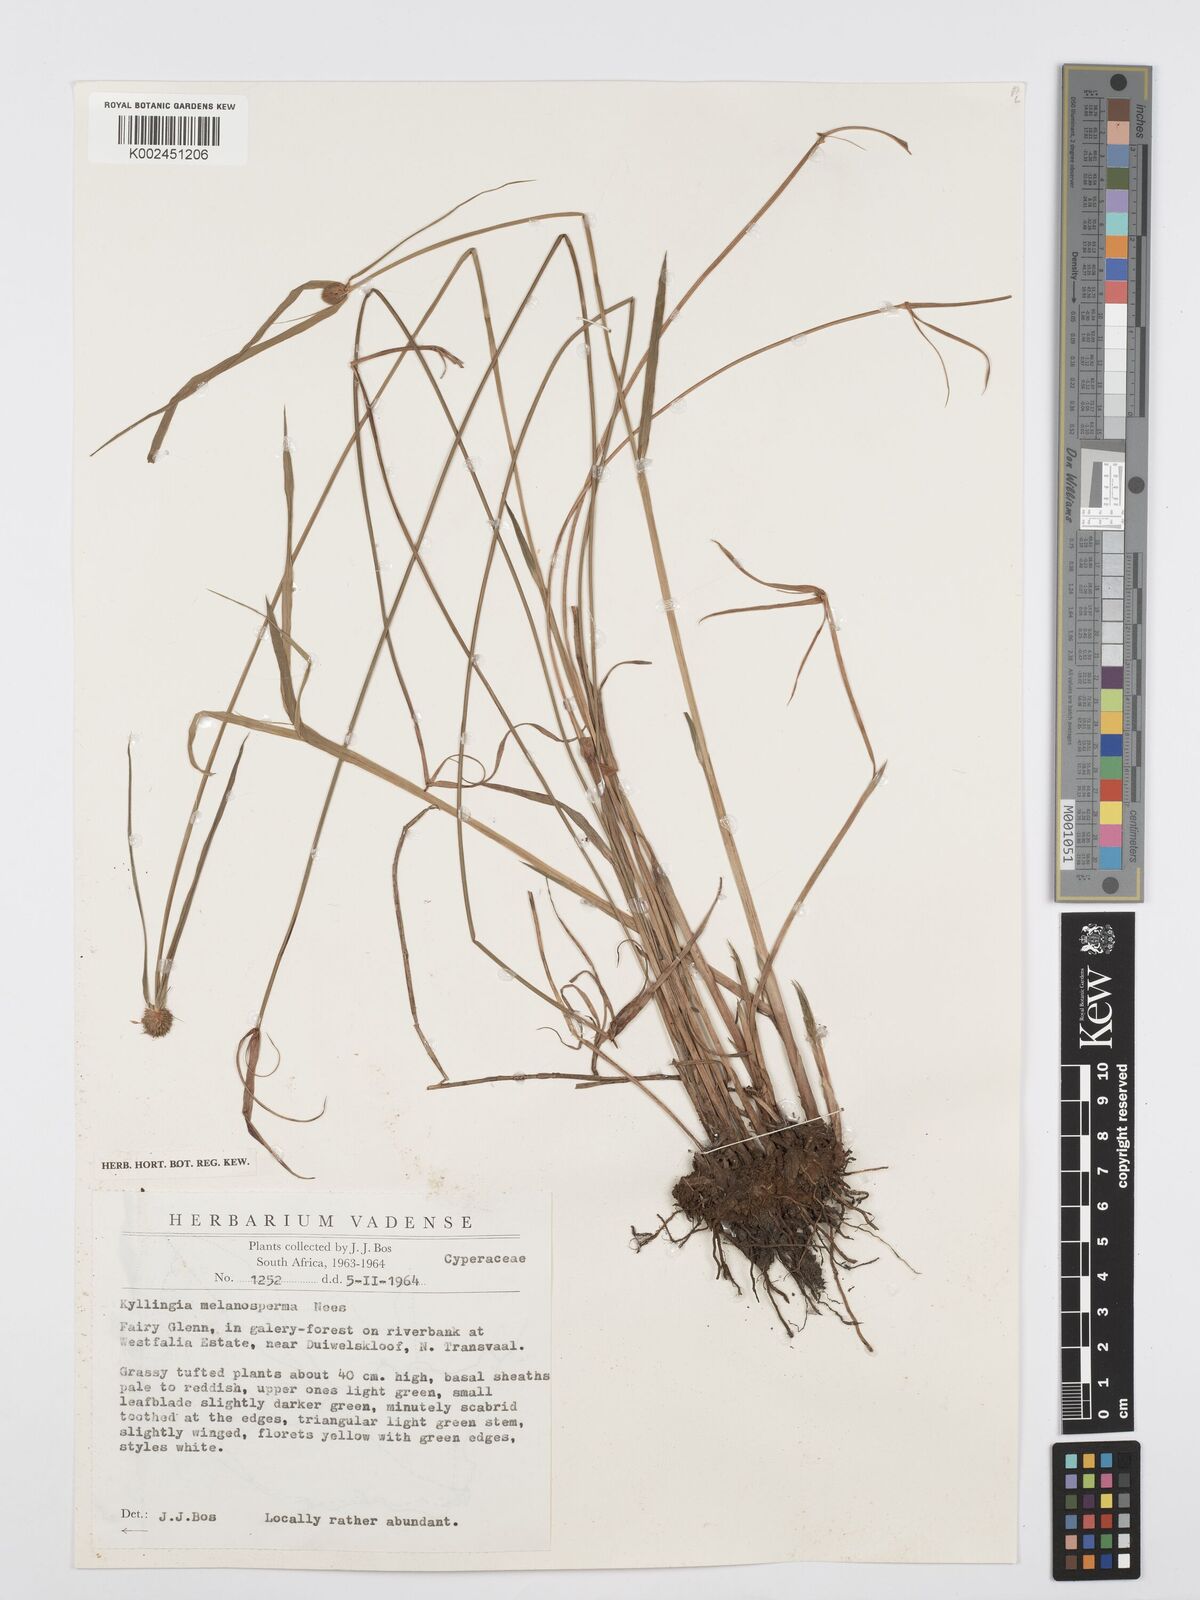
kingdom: Plantae
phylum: Tracheophyta
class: Liliopsida
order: Poales
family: Cyperaceae
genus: Cyperus
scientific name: Cyperus melanospermus
